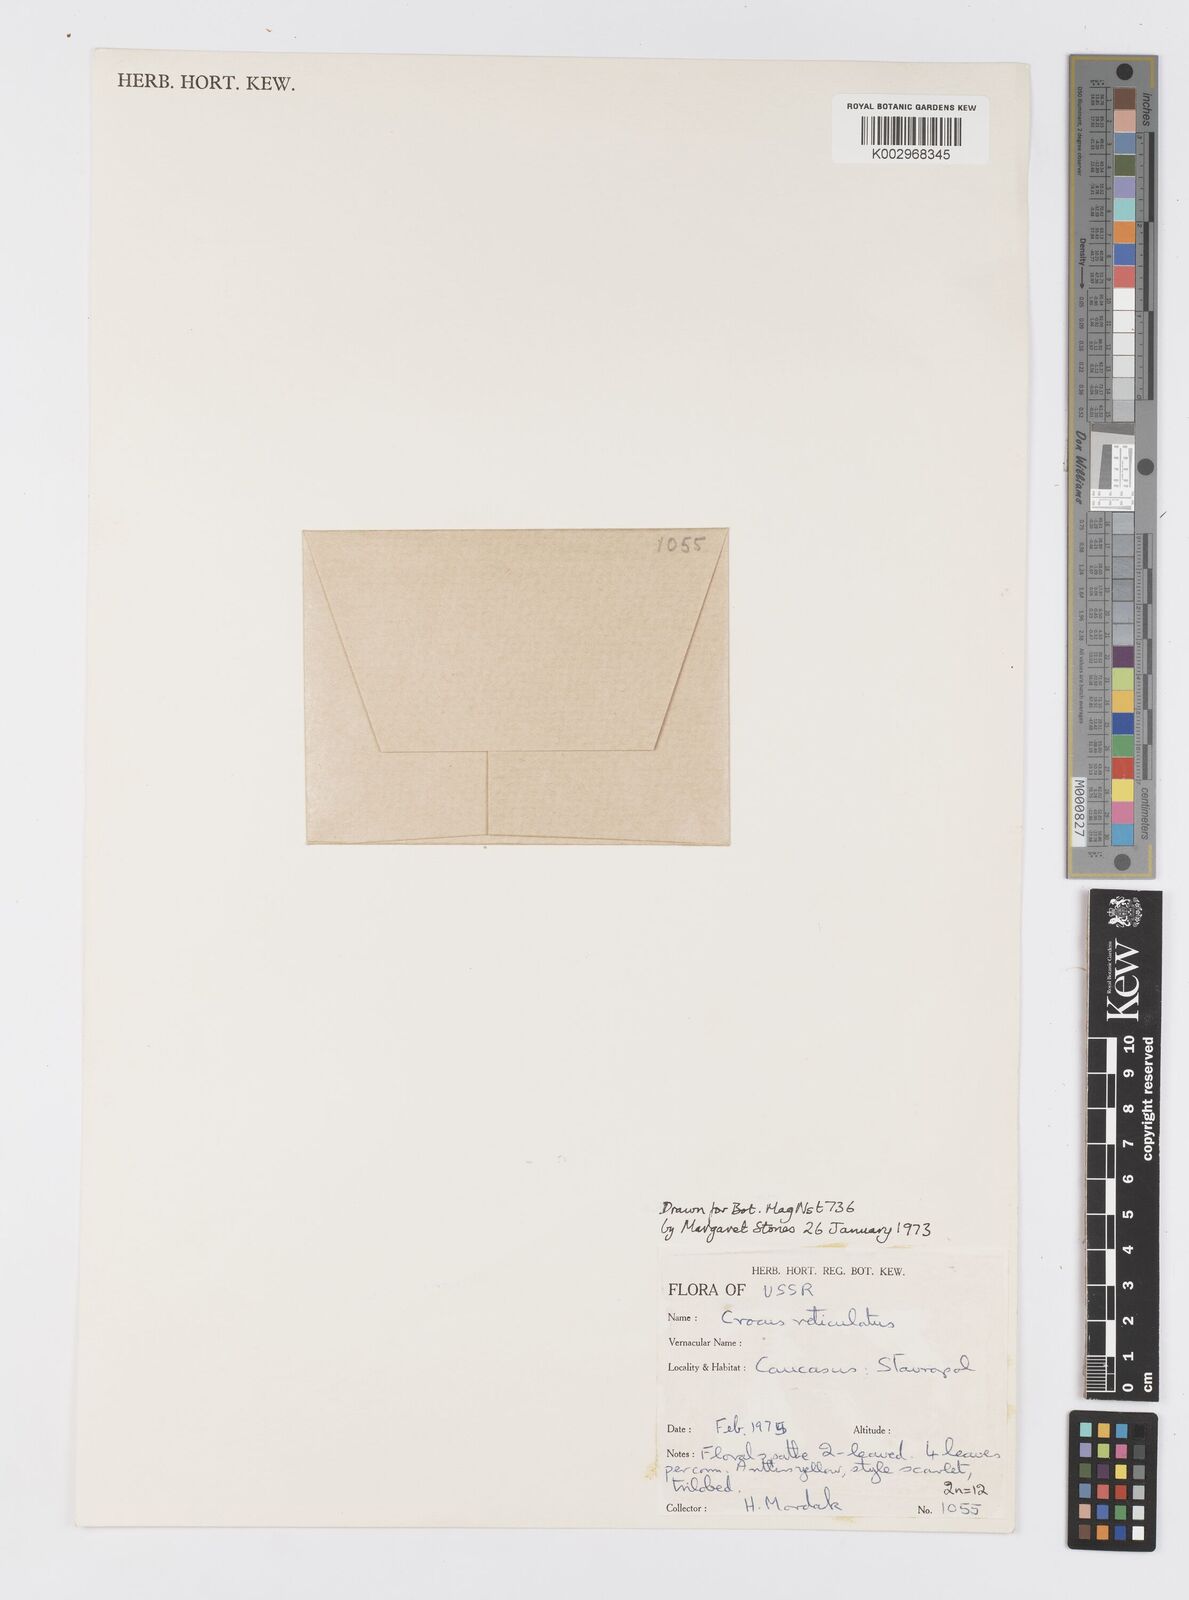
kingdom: Plantae
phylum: Tracheophyta
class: Liliopsida
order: Asparagales
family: Iridaceae
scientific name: Iridaceae
